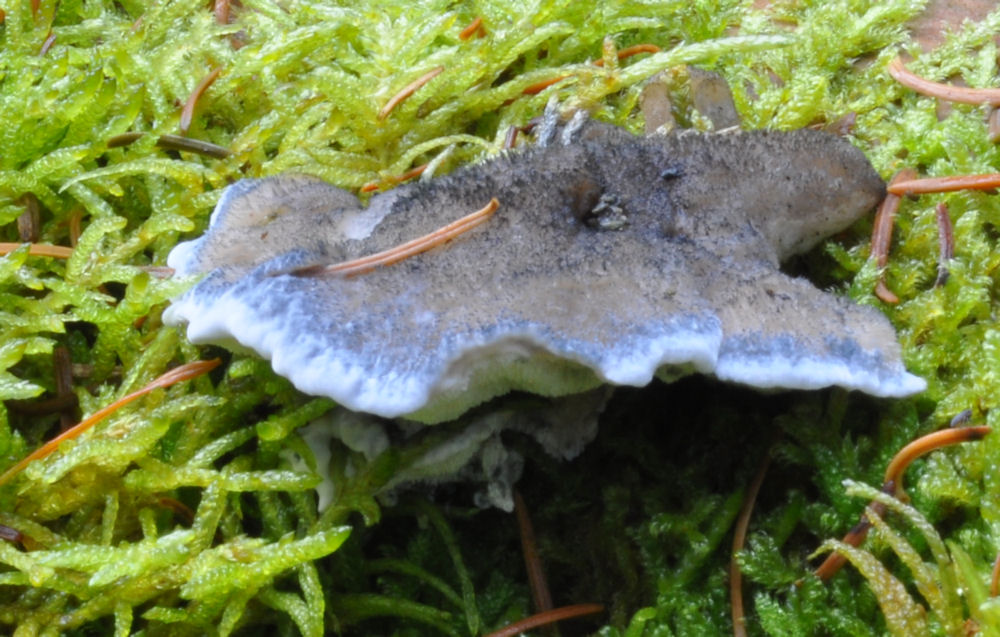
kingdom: Fungi
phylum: Basidiomycota
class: Agaricomycetes
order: Polyporales
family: Polyporaceae
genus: Cyanosporus
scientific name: Cyanosporus caesius
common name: blålig kødporesvamp
